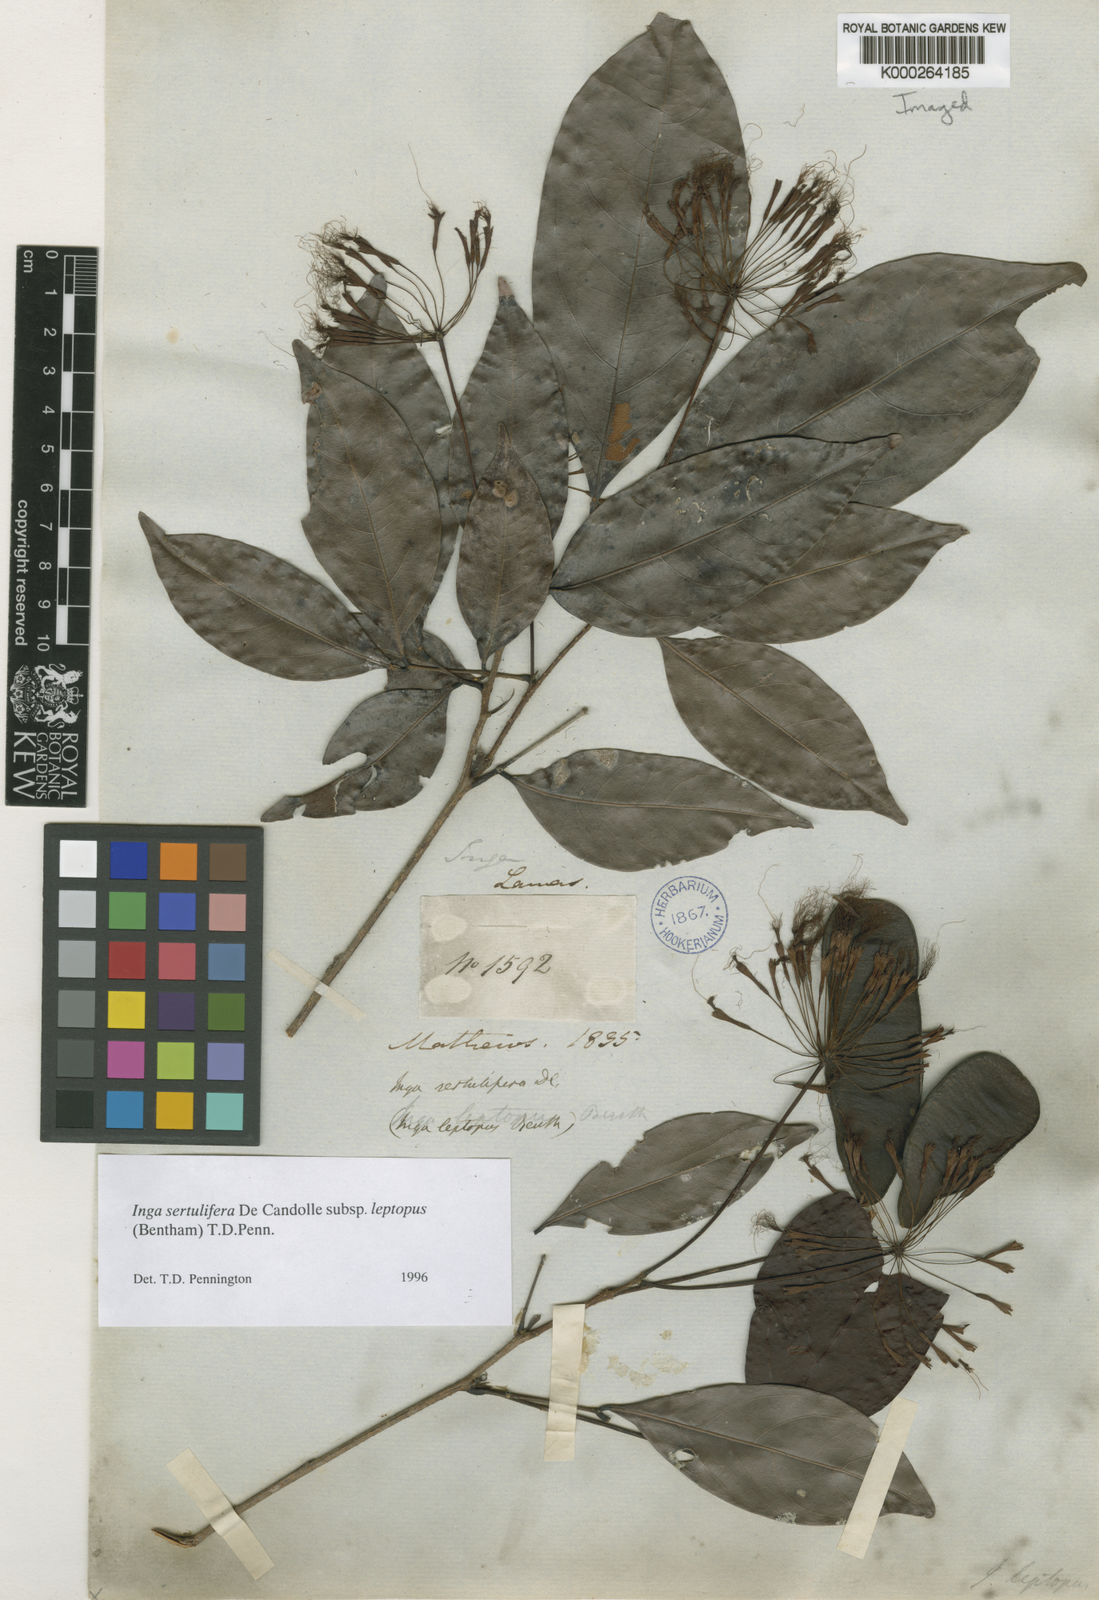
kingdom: Plantae
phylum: Tracheophyta
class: Magnoliopsida
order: Fabales
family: Fabaceae
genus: Inga
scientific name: Inga
